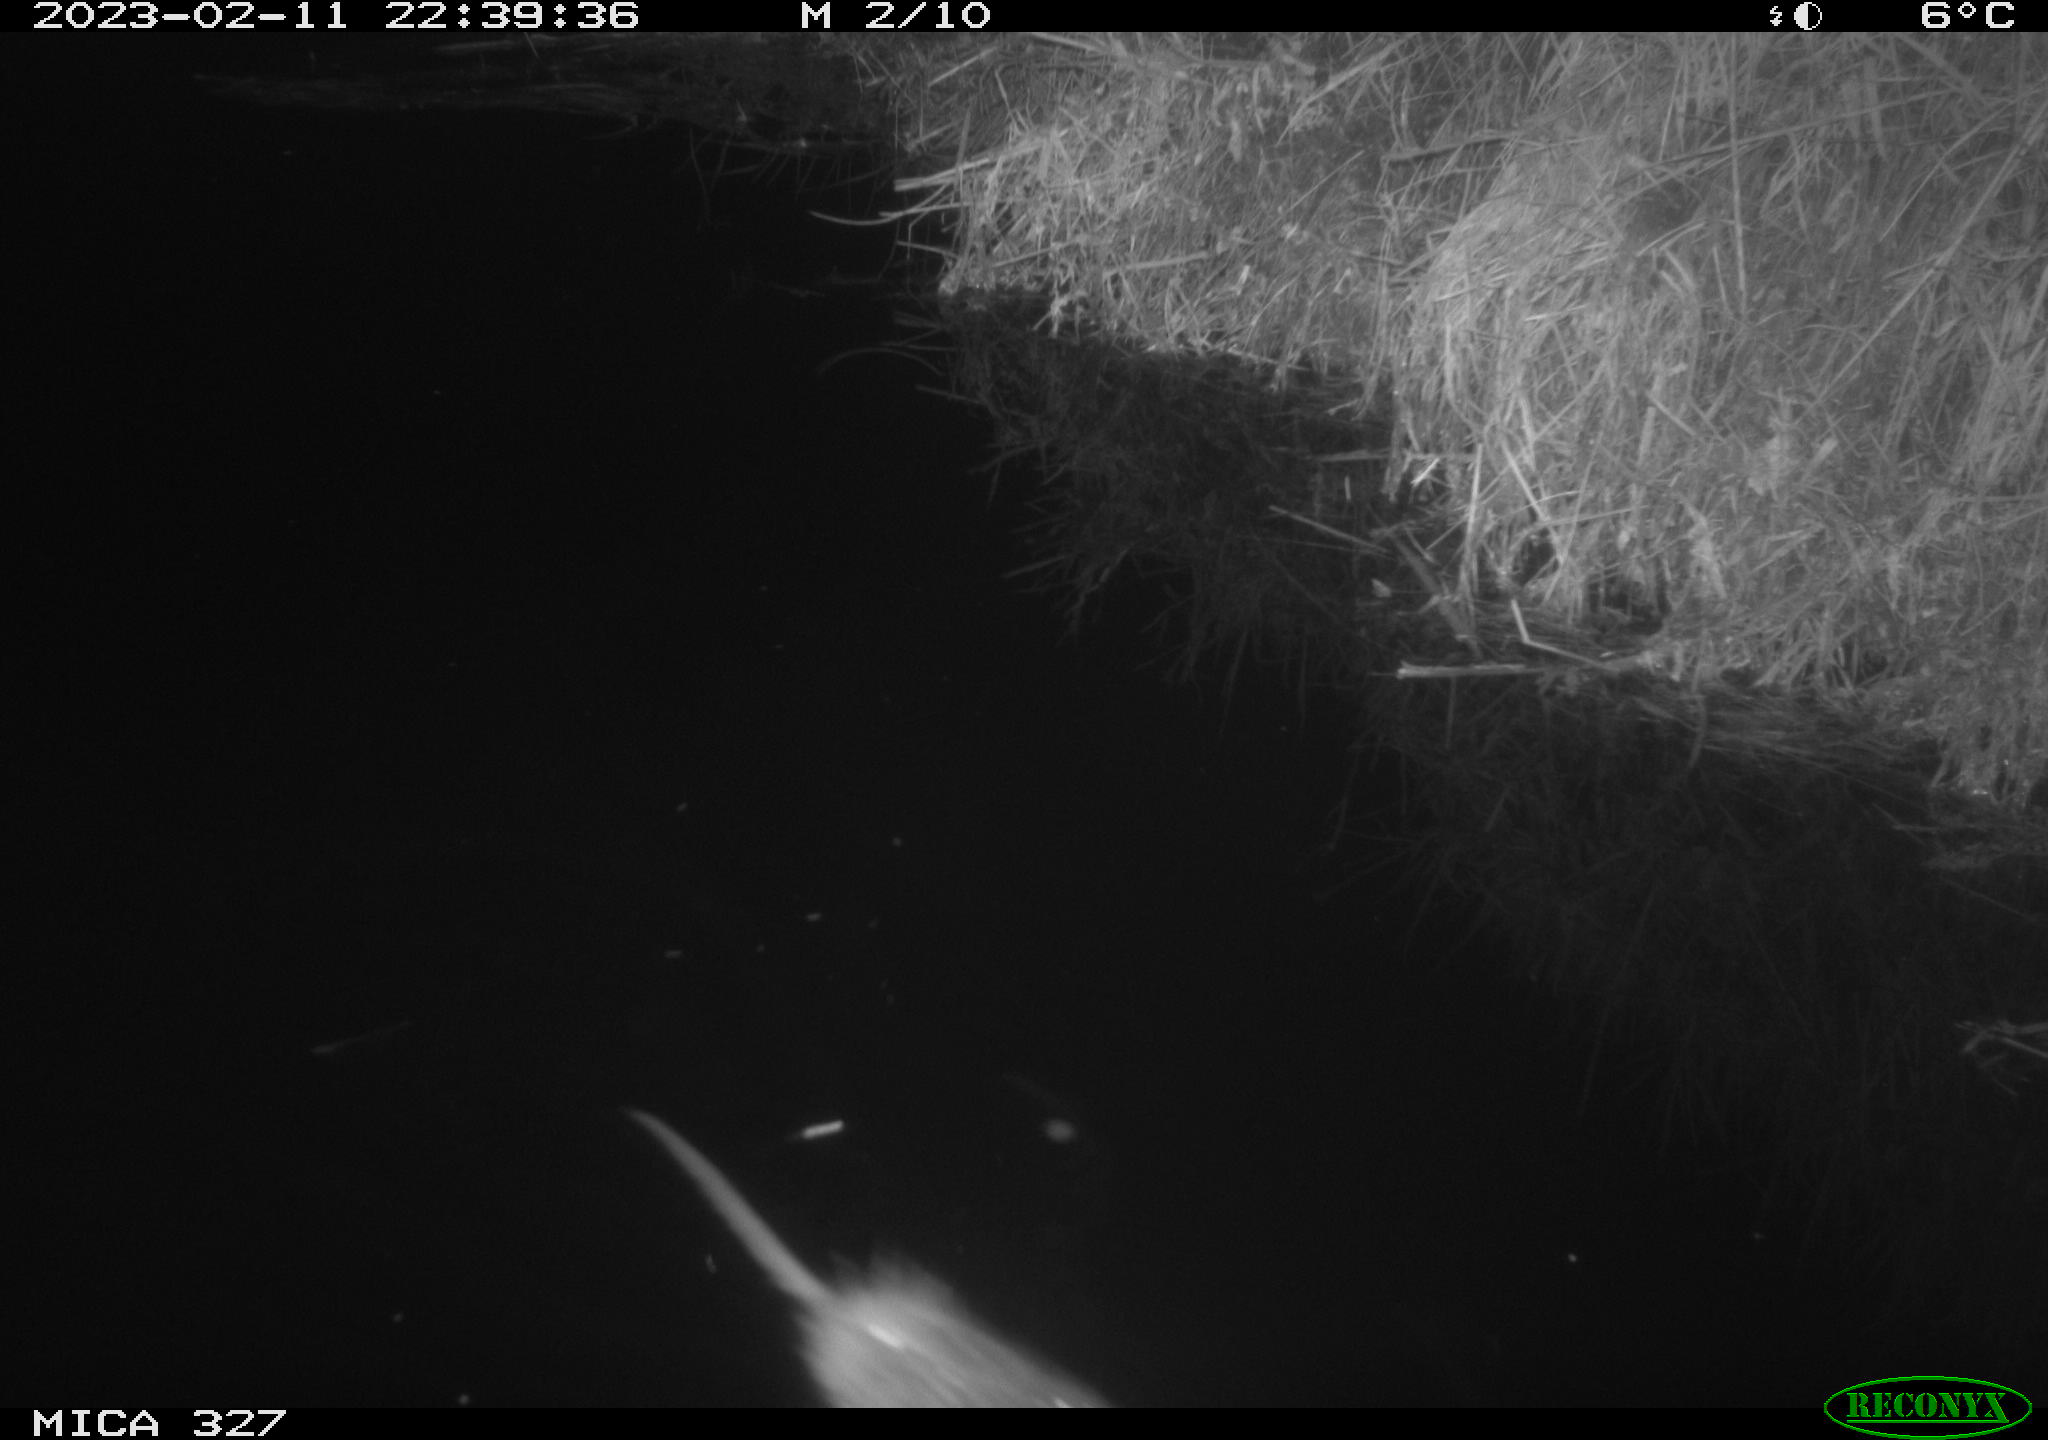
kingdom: Animalia
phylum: Chordata
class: Mammalia
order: Rodentia
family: Cricetidae
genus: Ondatra
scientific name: Ondatra zibethicus
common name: Muskrat
